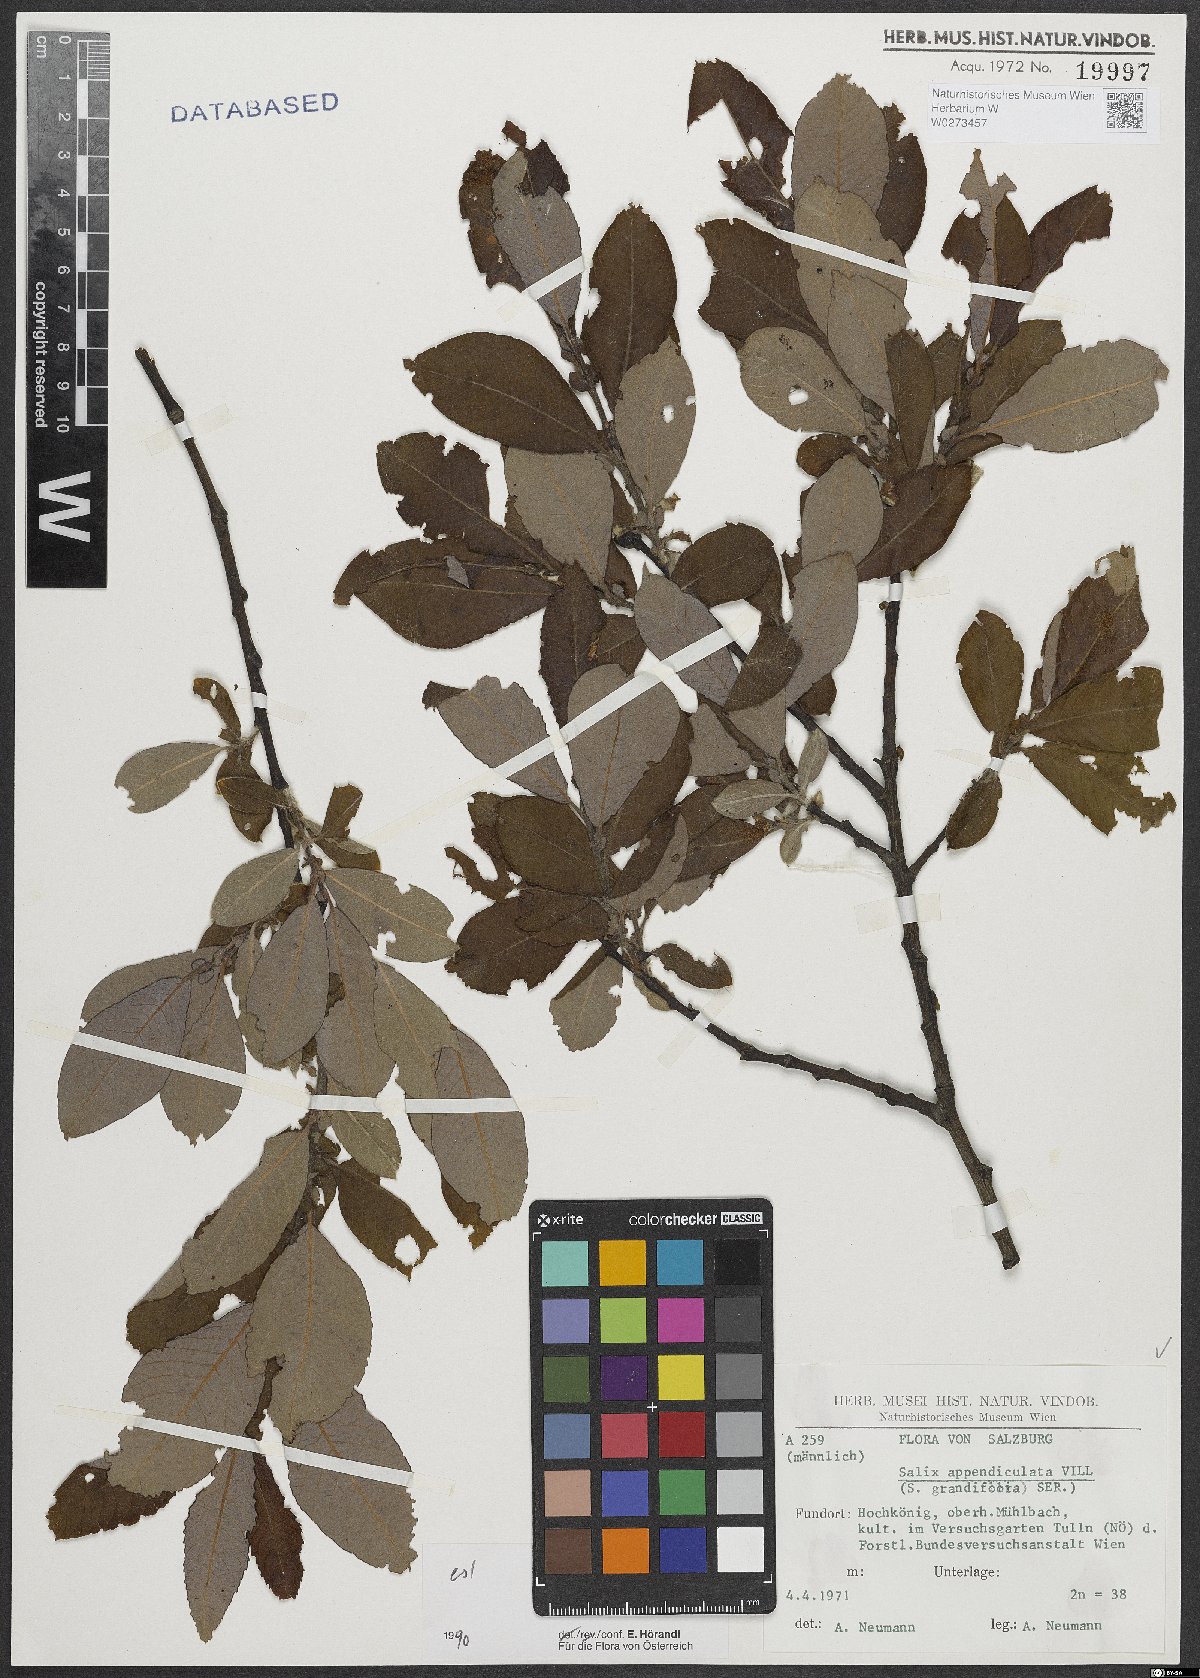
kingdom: Plantae
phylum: Tracheophyta
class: Magnoliopsida
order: Malpighiales
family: Salicaceae
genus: Salix
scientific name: Salix appendiculata
